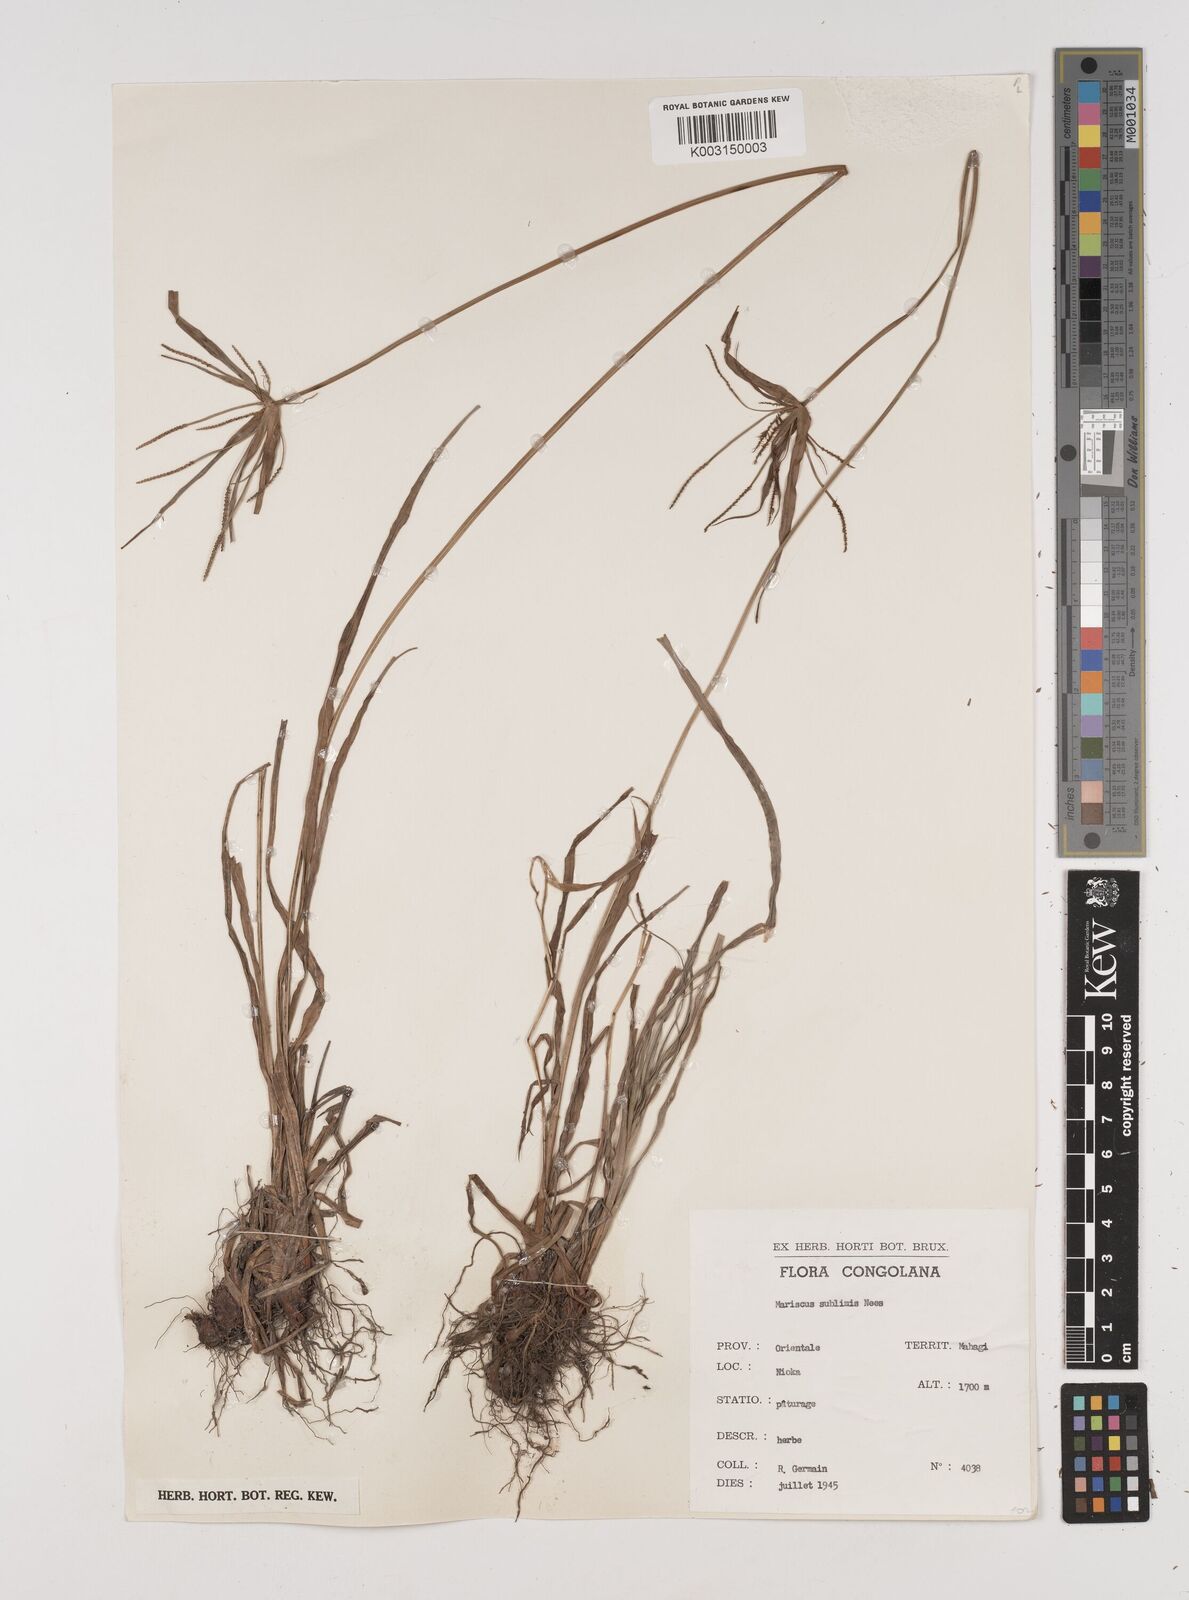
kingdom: Plantae
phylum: Tracheophyta
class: Liliopsida
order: Poales
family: Cyperaceae
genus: Cyperus
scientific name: Cyperus cyperoides
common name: Pacific island flat sedge
